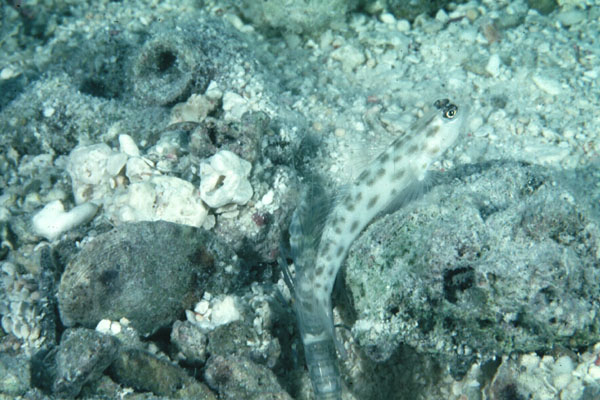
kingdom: Animalia
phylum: Chordata
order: Perciformes
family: Gobiidae
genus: Ctenogobiops
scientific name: Ctenogobiops
